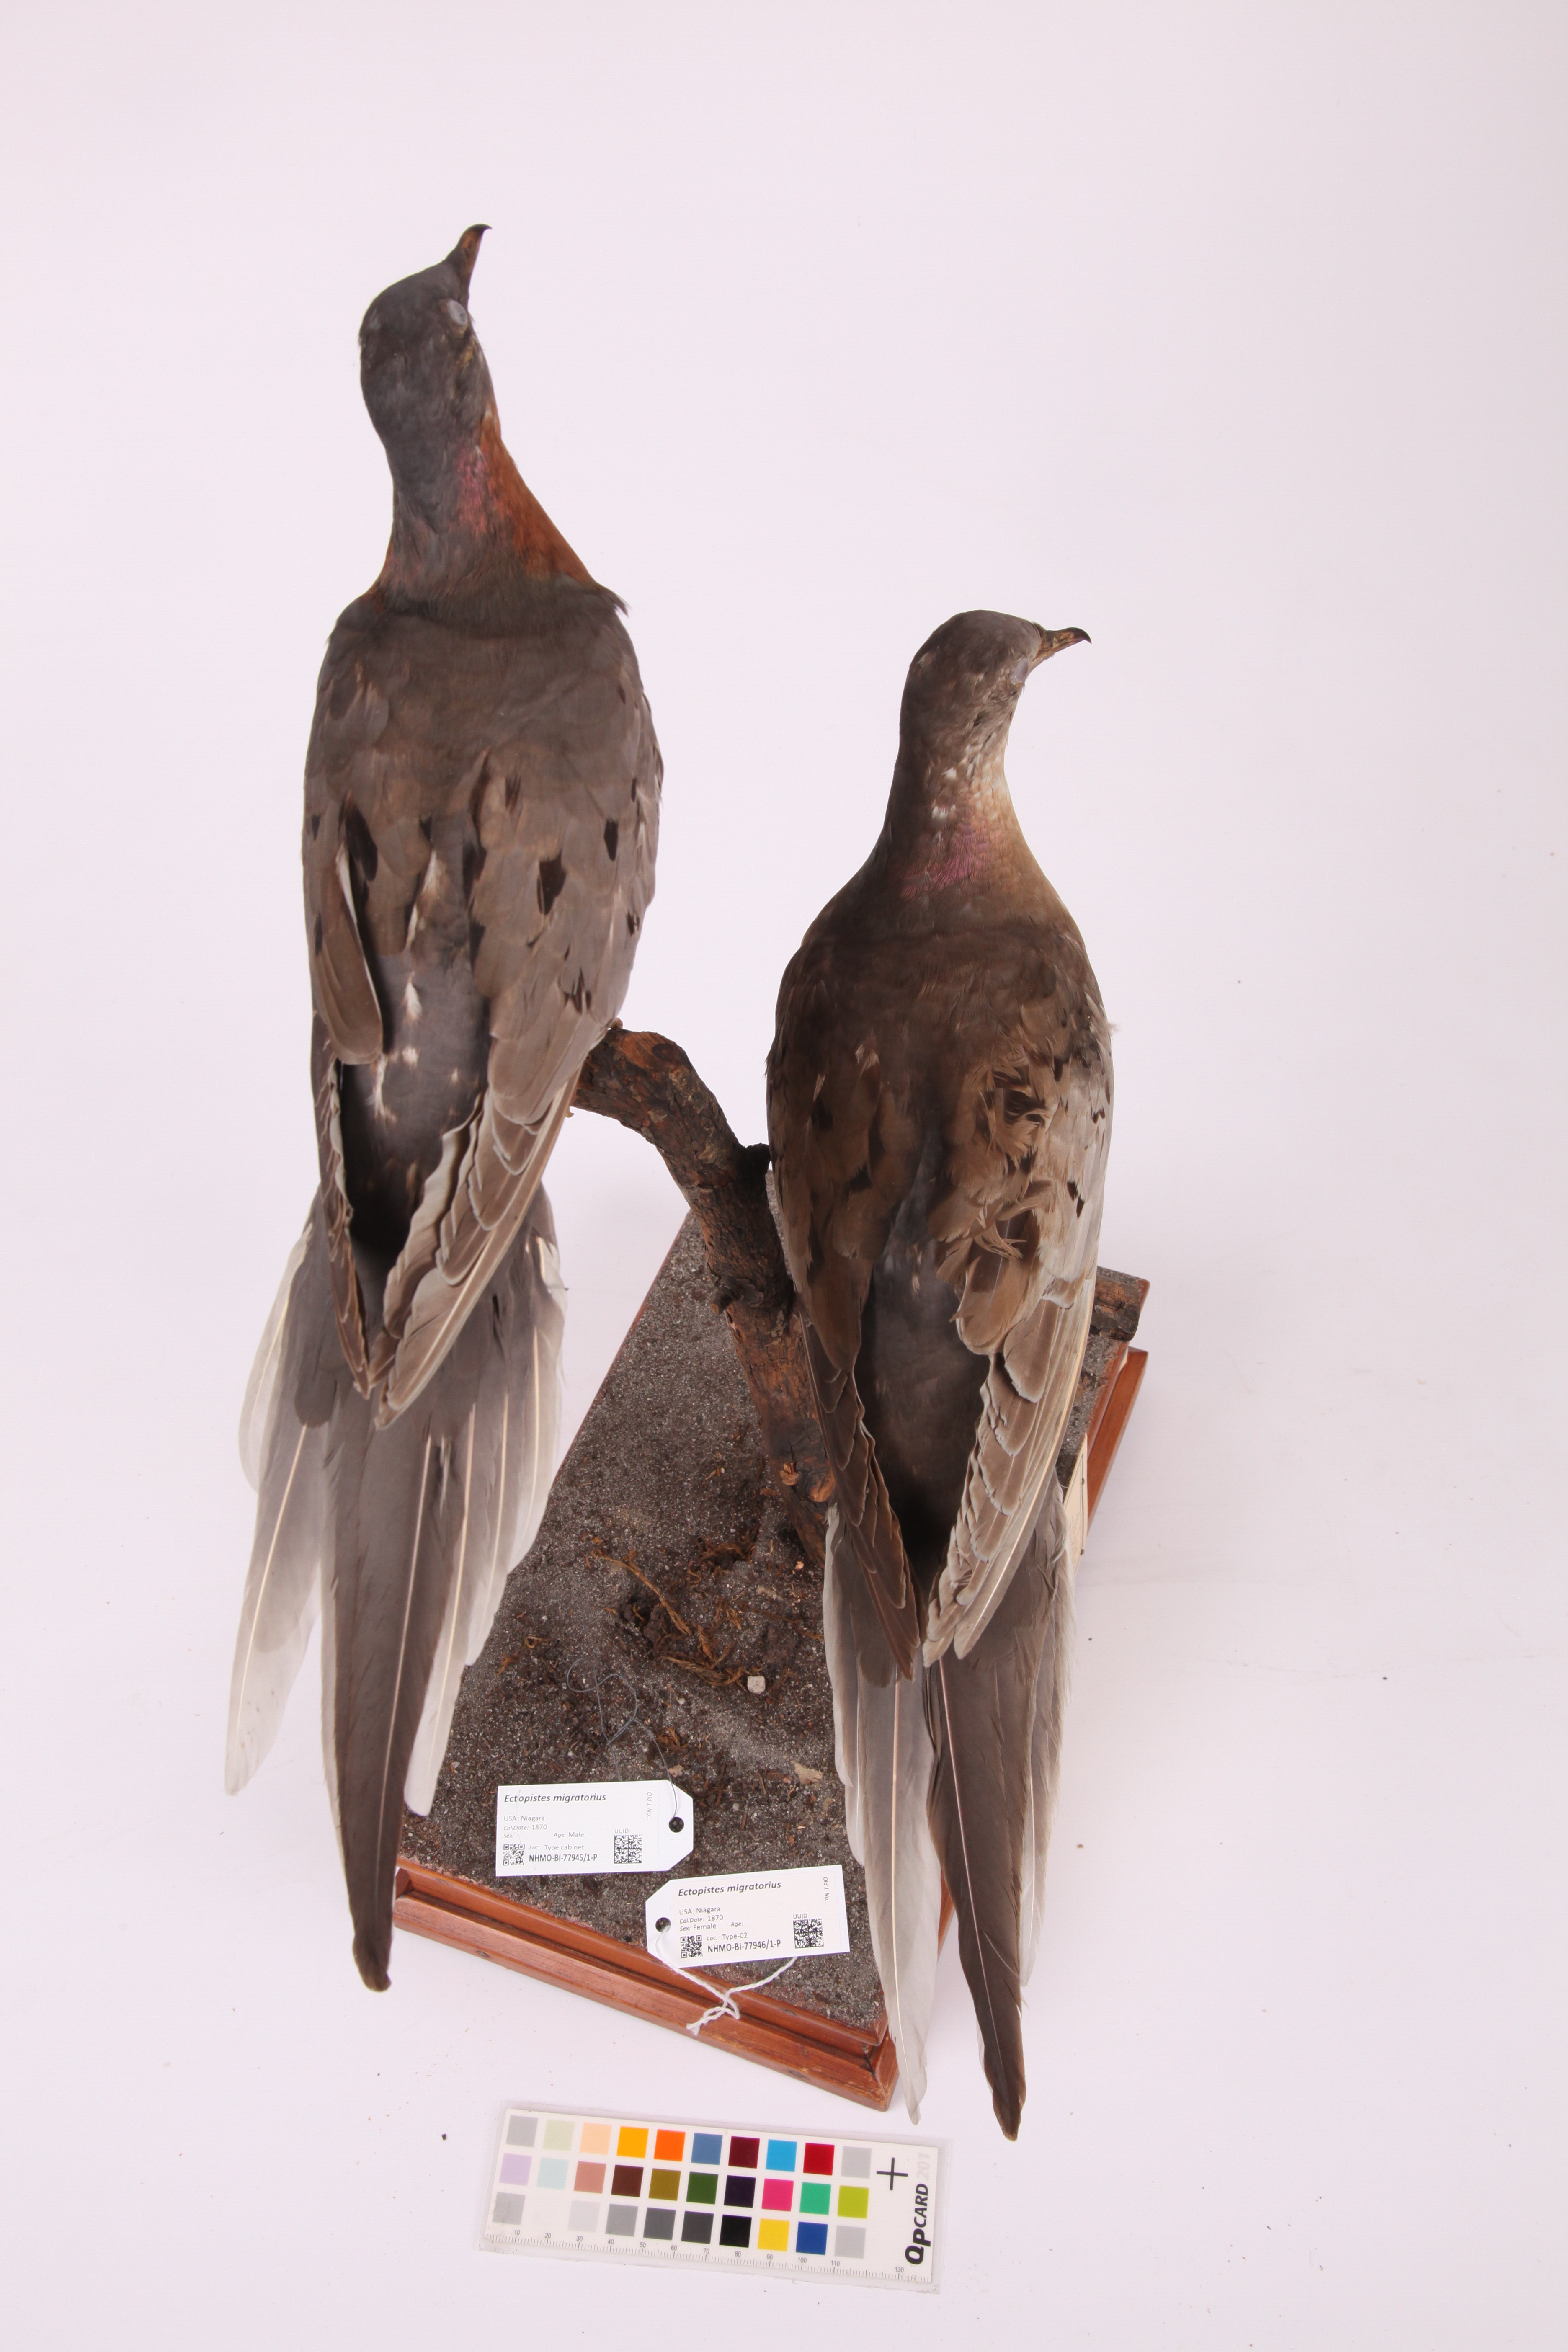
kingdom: Animalia
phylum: Chordata
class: Aves
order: Columbiformes
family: Columbidae
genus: Ectopistes
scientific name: Ectopistes migratorius
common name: Passenger pigeon
